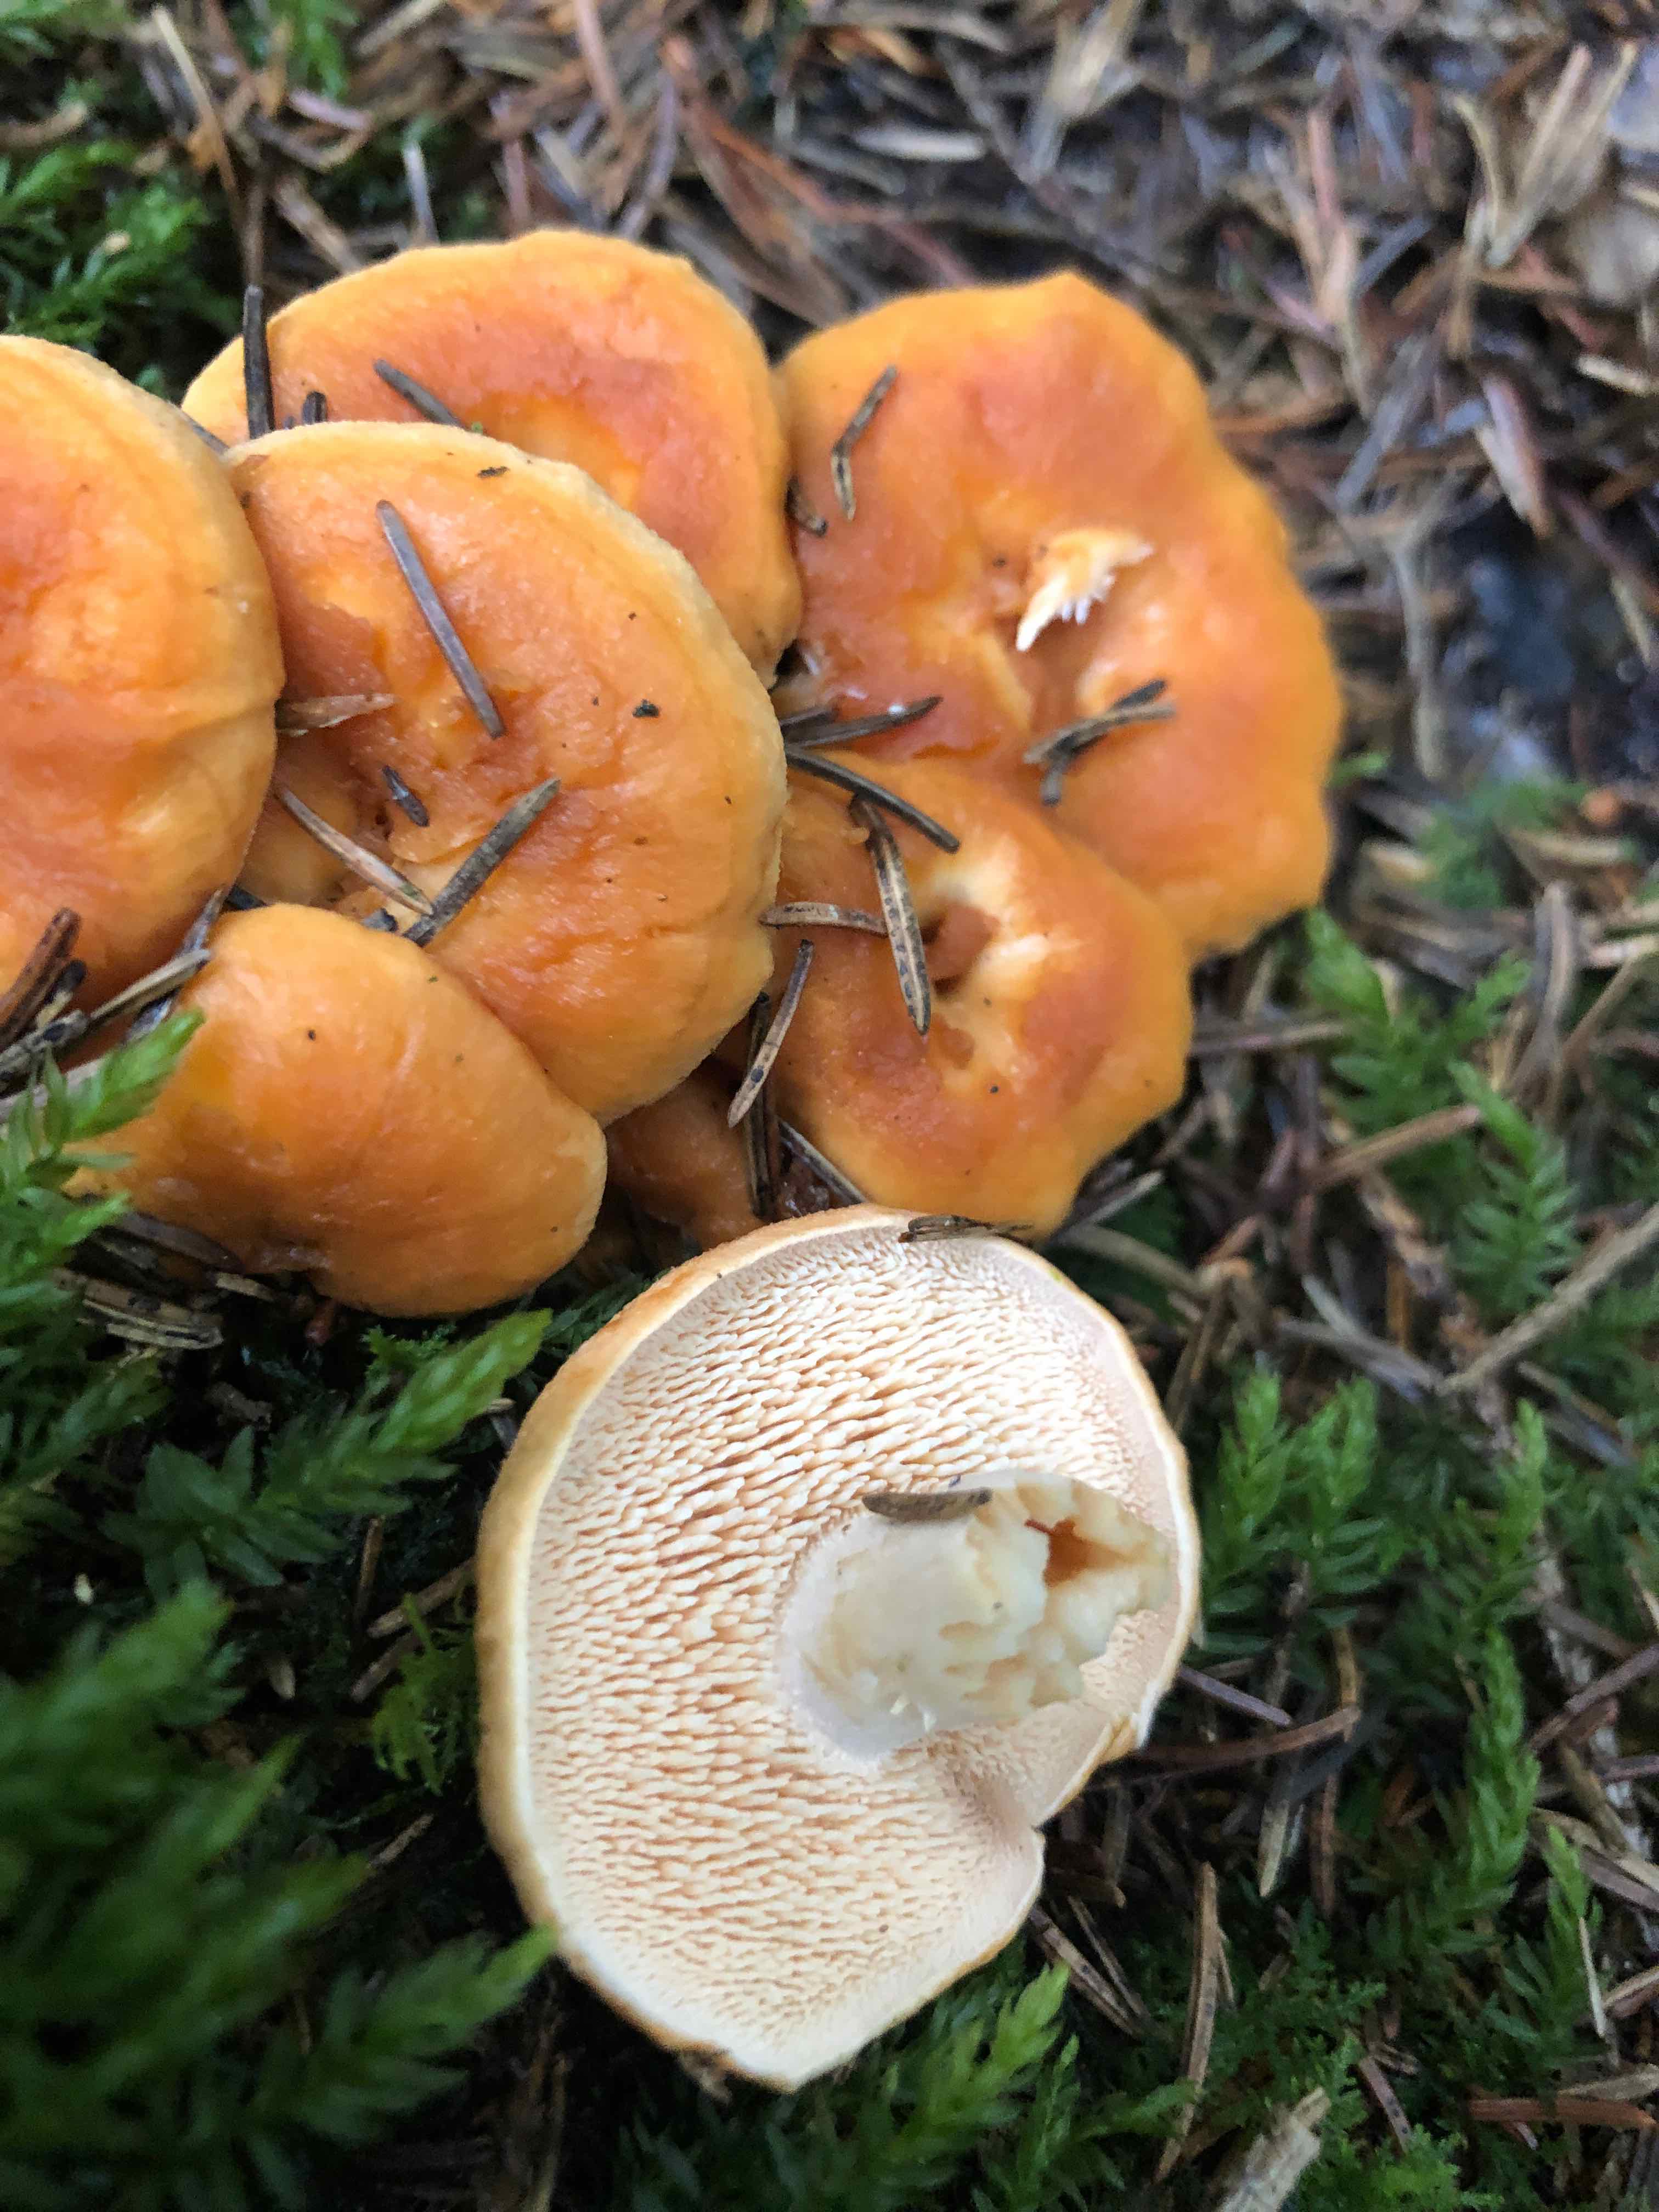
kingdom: Fungi
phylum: Basidiomycota
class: Agaricomycetes
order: Cantharellales
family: Hydnaceae
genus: Hydnum
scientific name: Hydnum rufescens
